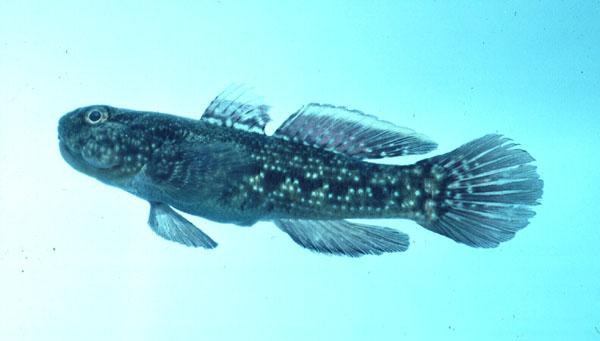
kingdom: Animalia
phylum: Chordata
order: Perciformes
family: Gobiidae
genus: Bathygobius
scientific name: Bathygobius coalitus
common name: Whitespotted goby
